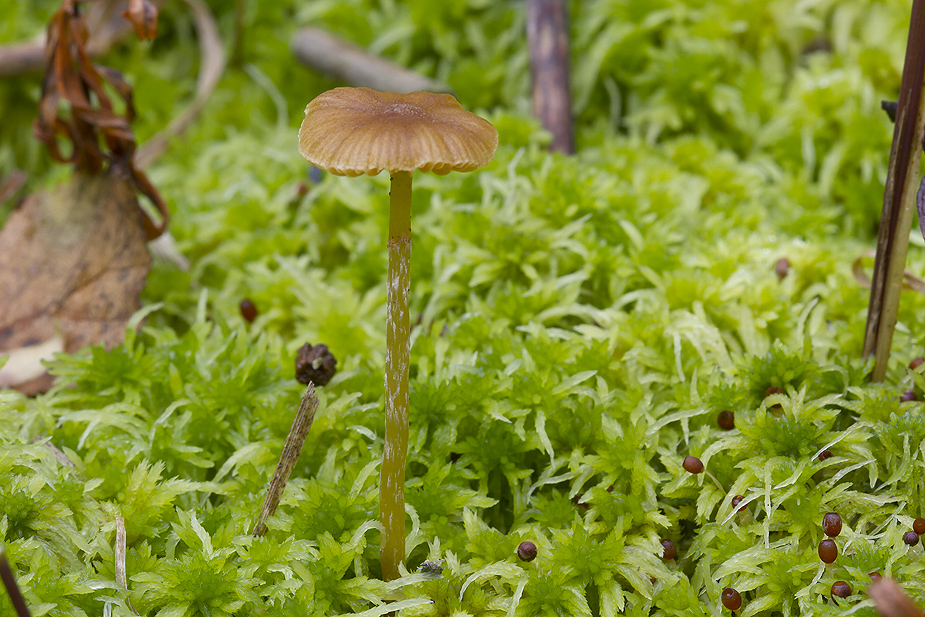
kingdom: Fungi
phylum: Basidiomycota
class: Agaricomycetes
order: Agaricales
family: Hymenogastraceae
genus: Galerina
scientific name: Galerina paludosa
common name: mose-hjelmhat
